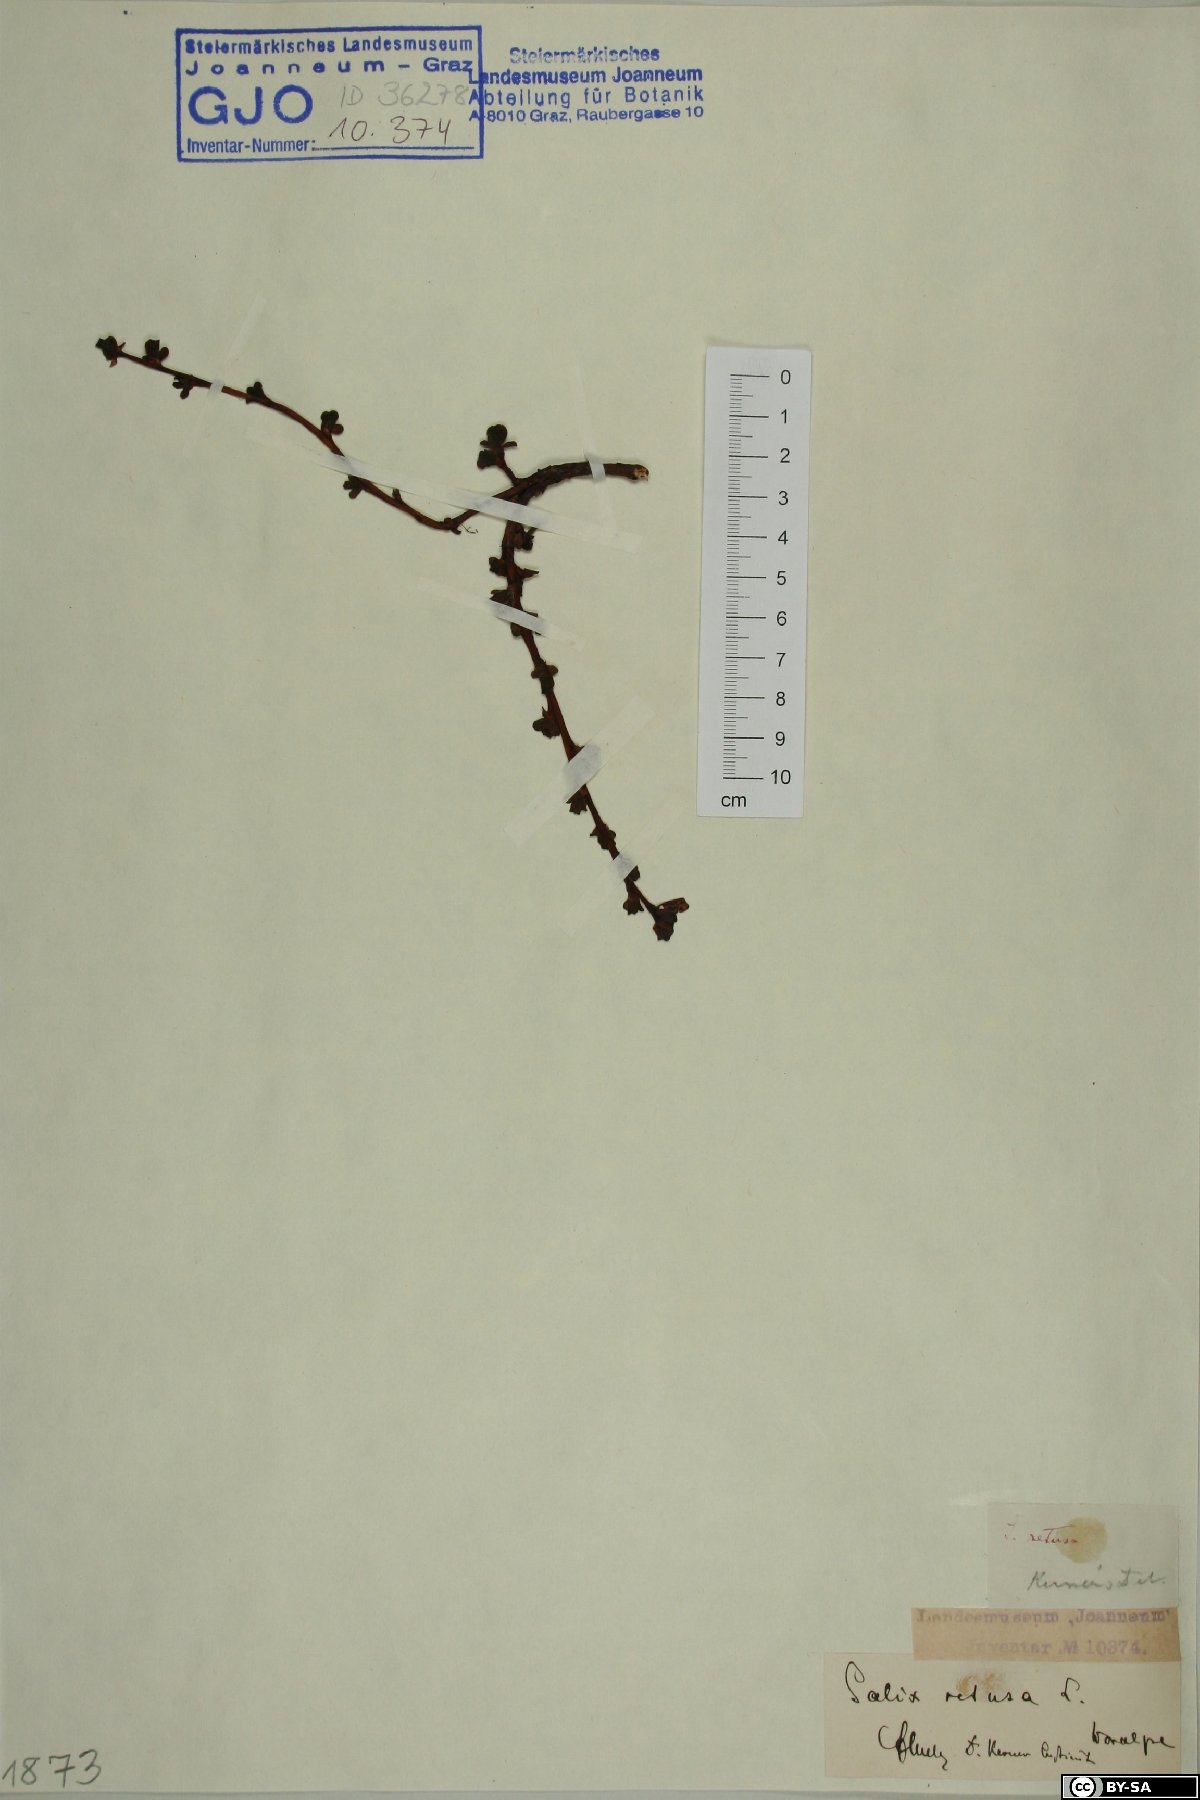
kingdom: Plantae
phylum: Tracheophyta
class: Magnoliopsida
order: Malpighiales
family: Salicaceae
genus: Salix
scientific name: Salix retusa
